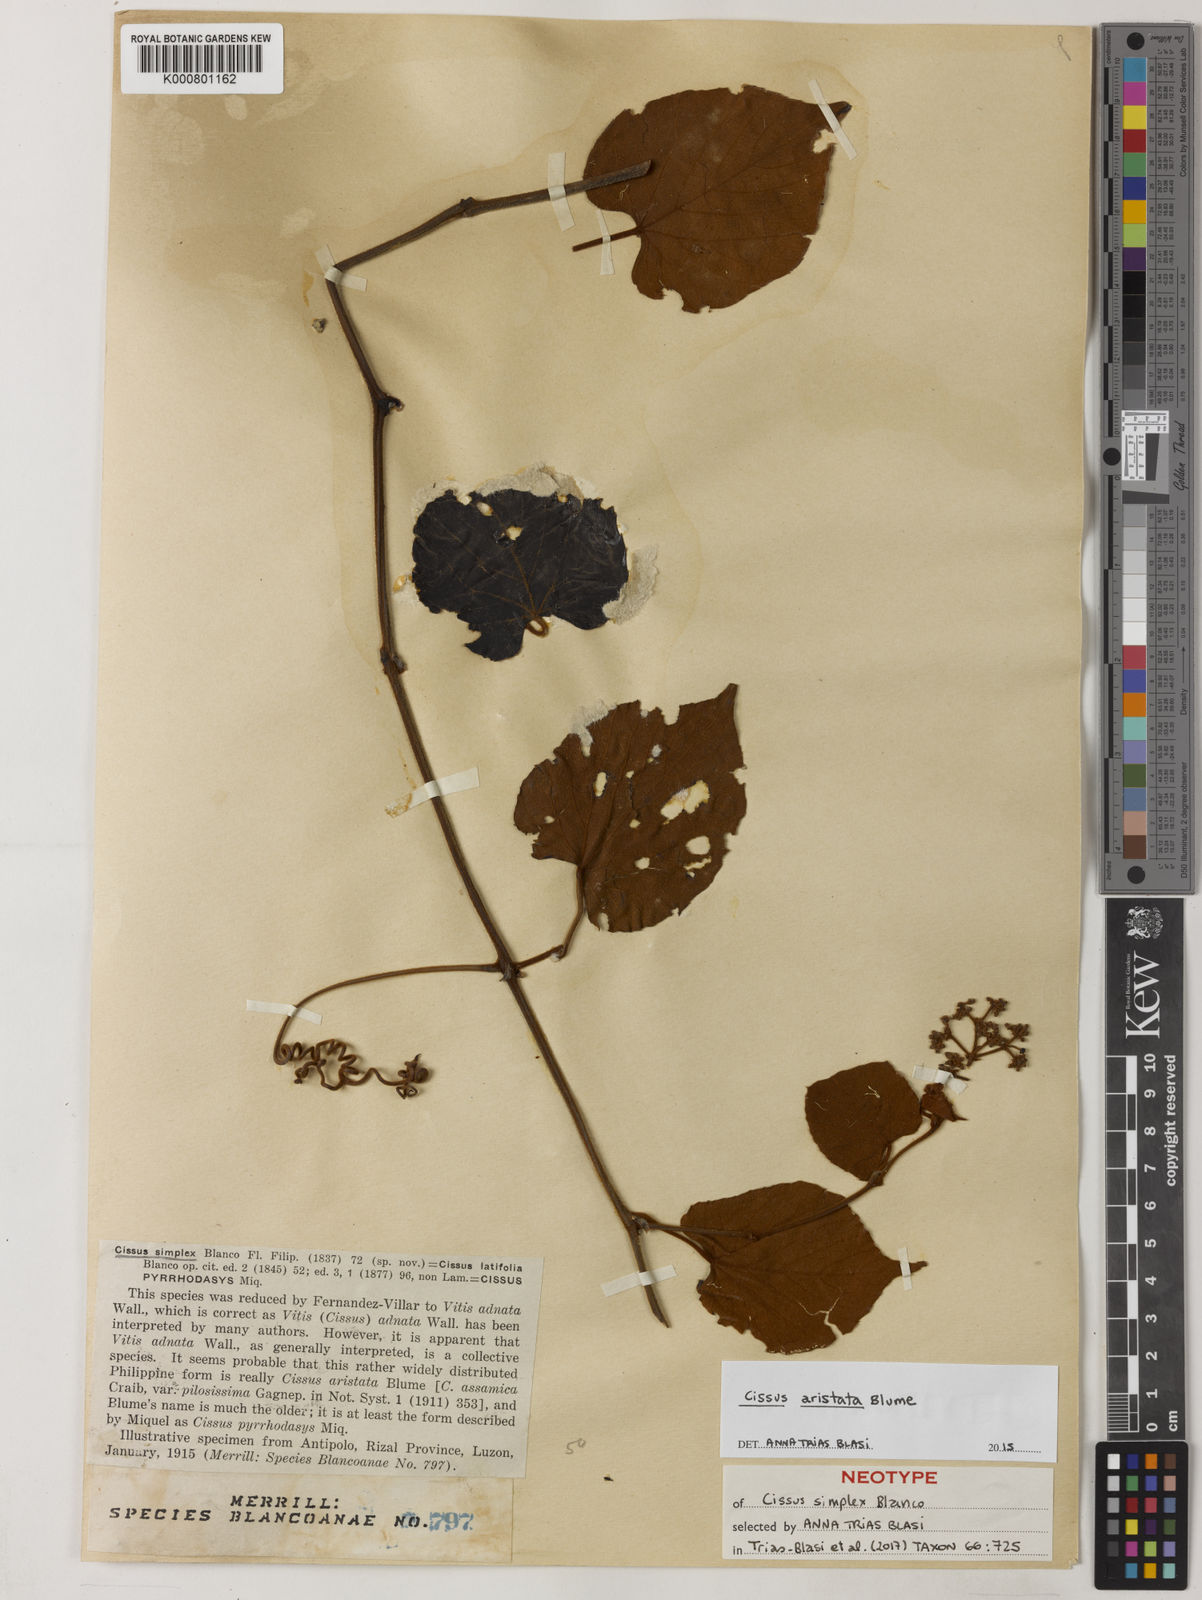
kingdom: Plantae
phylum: Tracheophyta
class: Magnoliopsida
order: Vitales
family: Vitaceae
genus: Cissus
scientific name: Cissus aristata
